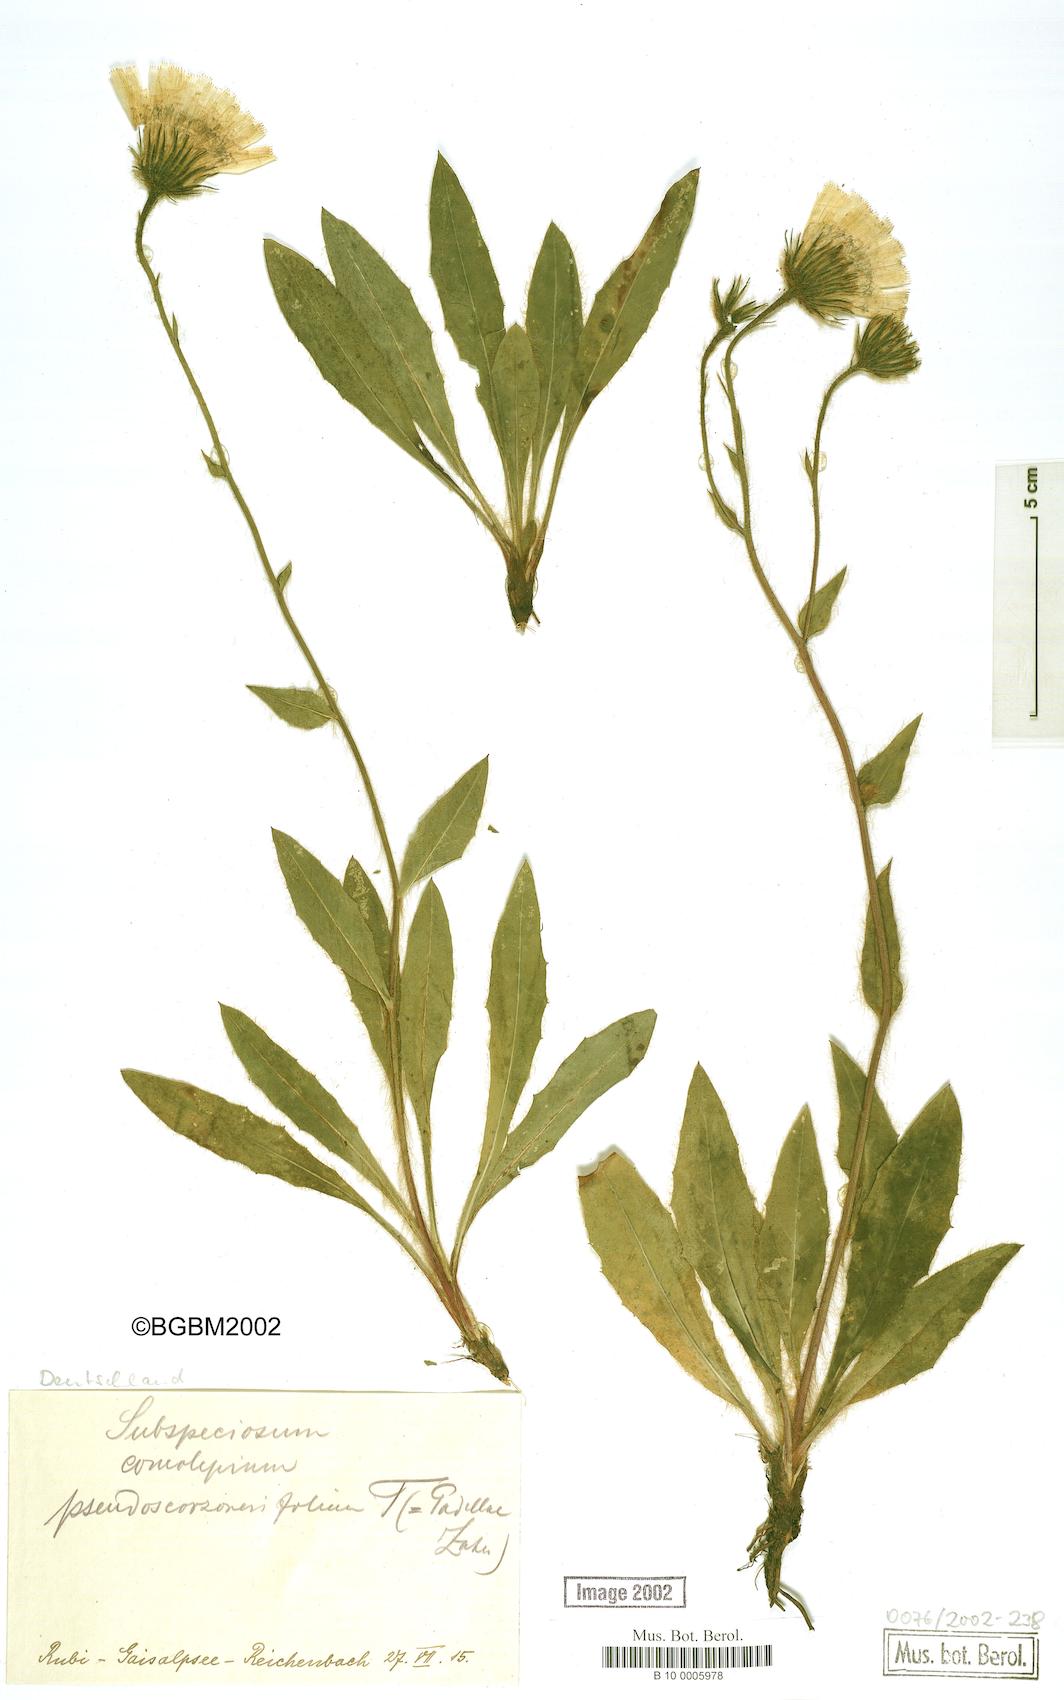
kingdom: Plantae
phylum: Tracheophyta
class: Magnoliopsida
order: Asterales
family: Asteraceae
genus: Hieracium
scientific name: Hieracium subspeciosum
